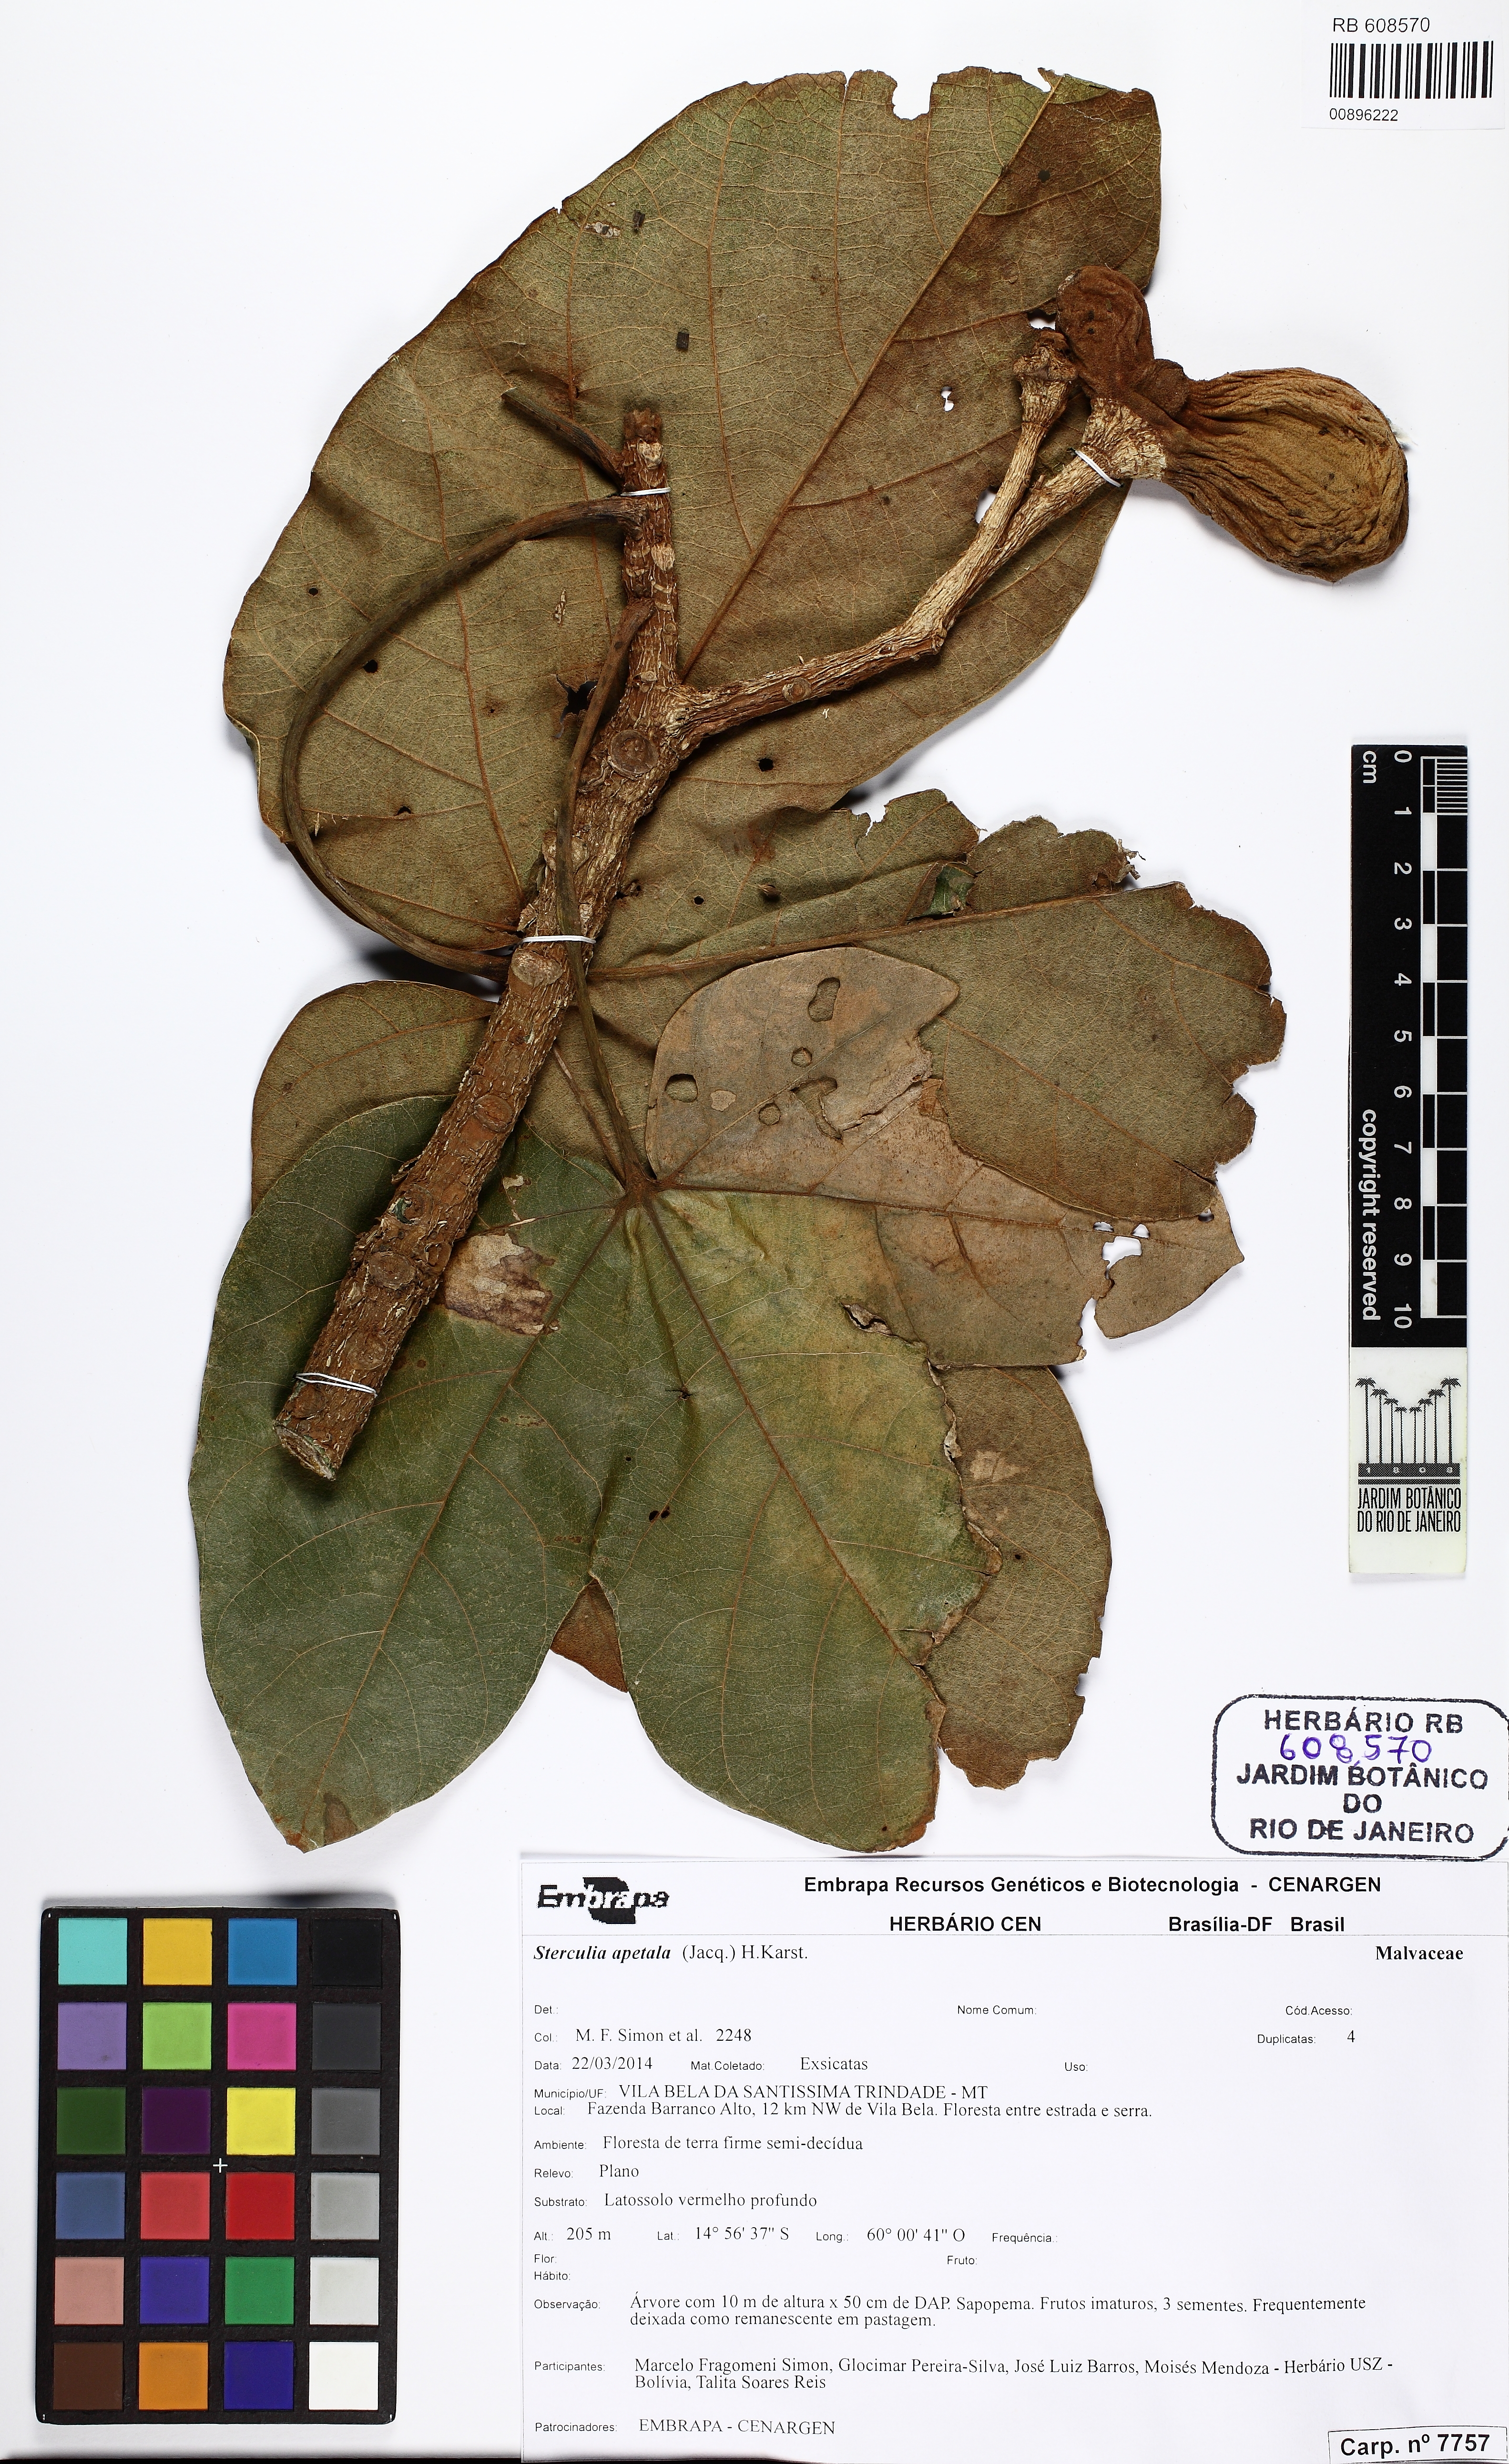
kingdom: Plantae
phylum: Tracheophyta
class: Magnoliopsida
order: Malvales
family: Malvaceae
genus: Sterculia
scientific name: Sterculia apetala
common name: Panama tree
